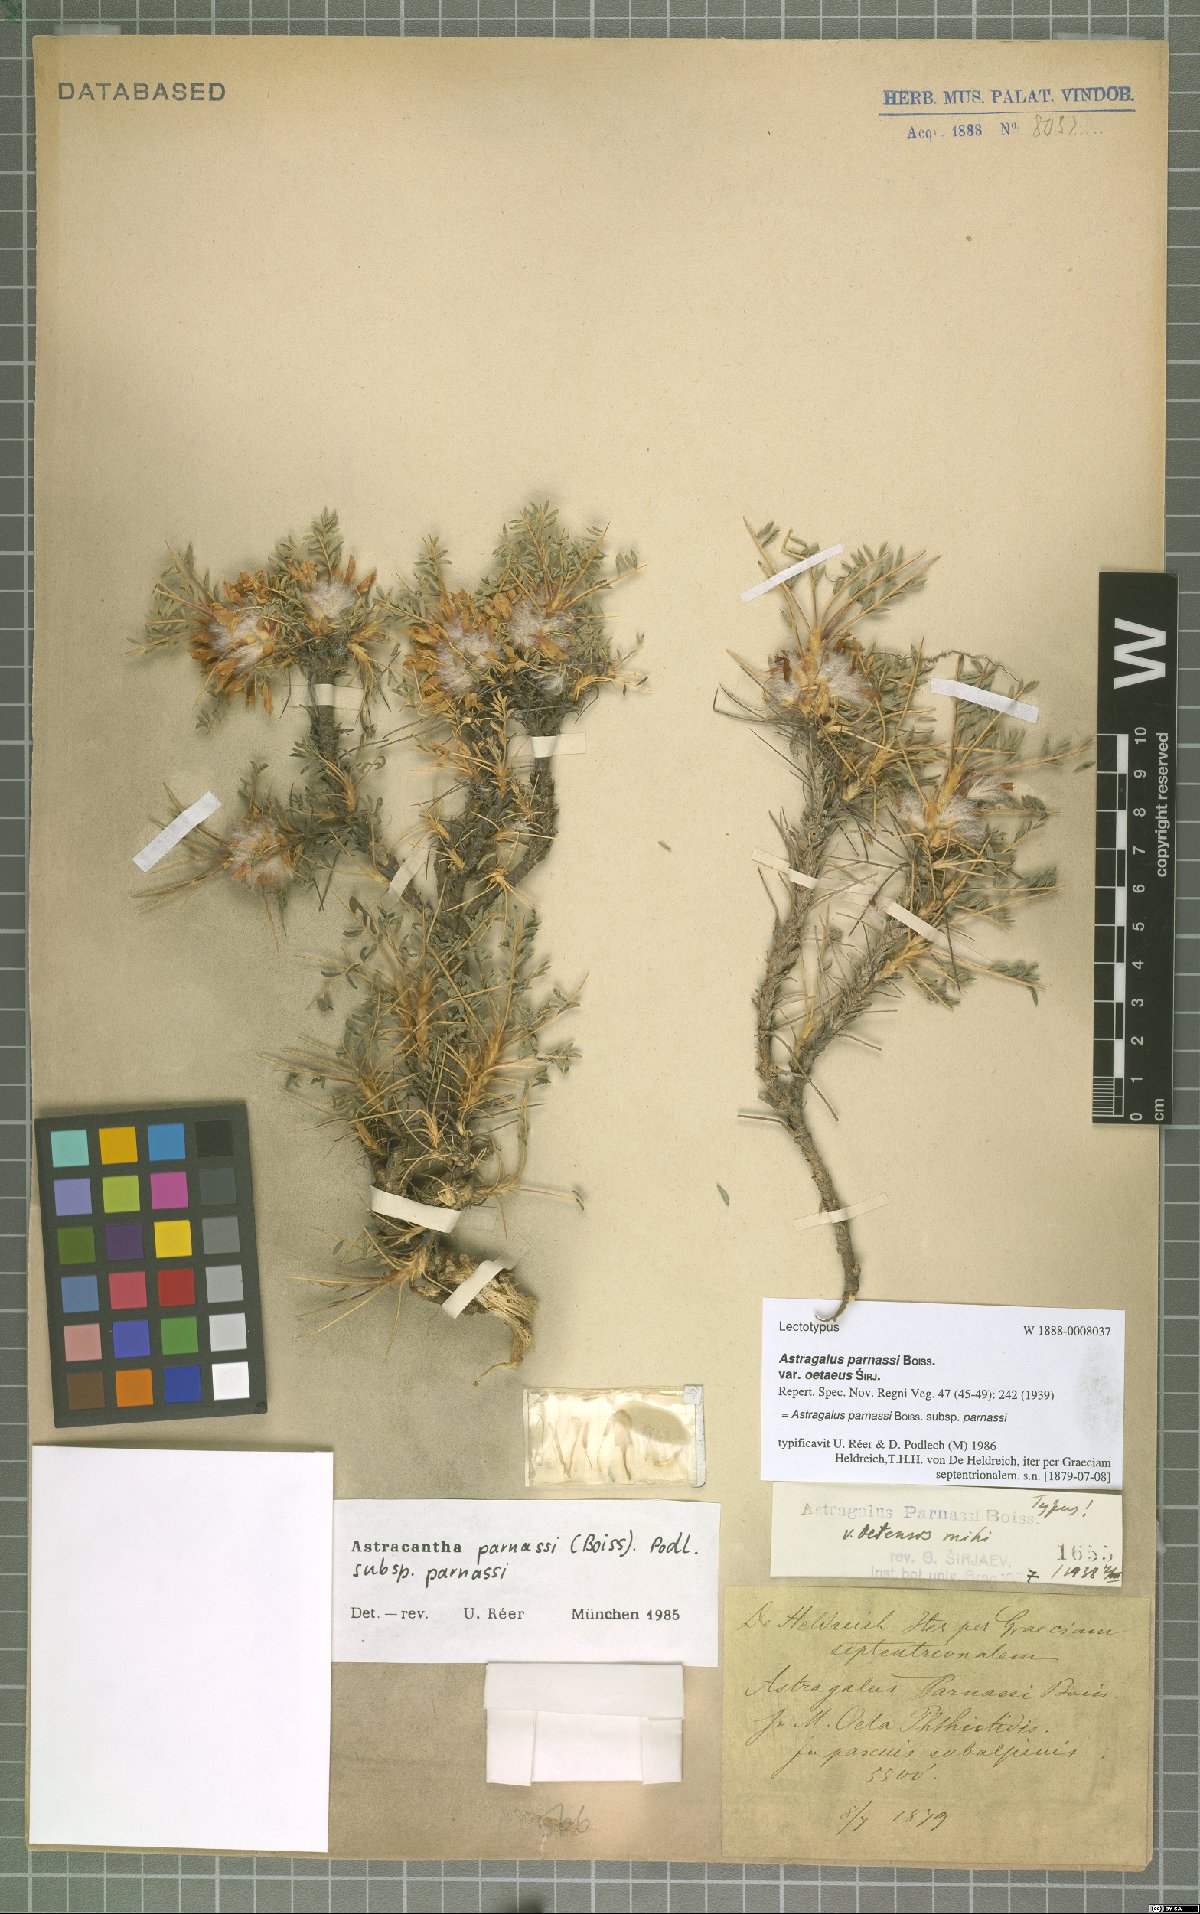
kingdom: Plantae
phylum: Tracheophyta
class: Magnoliopsida
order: Fabales
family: Fabaceae
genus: Astragalus
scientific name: Astragalus parnassi
